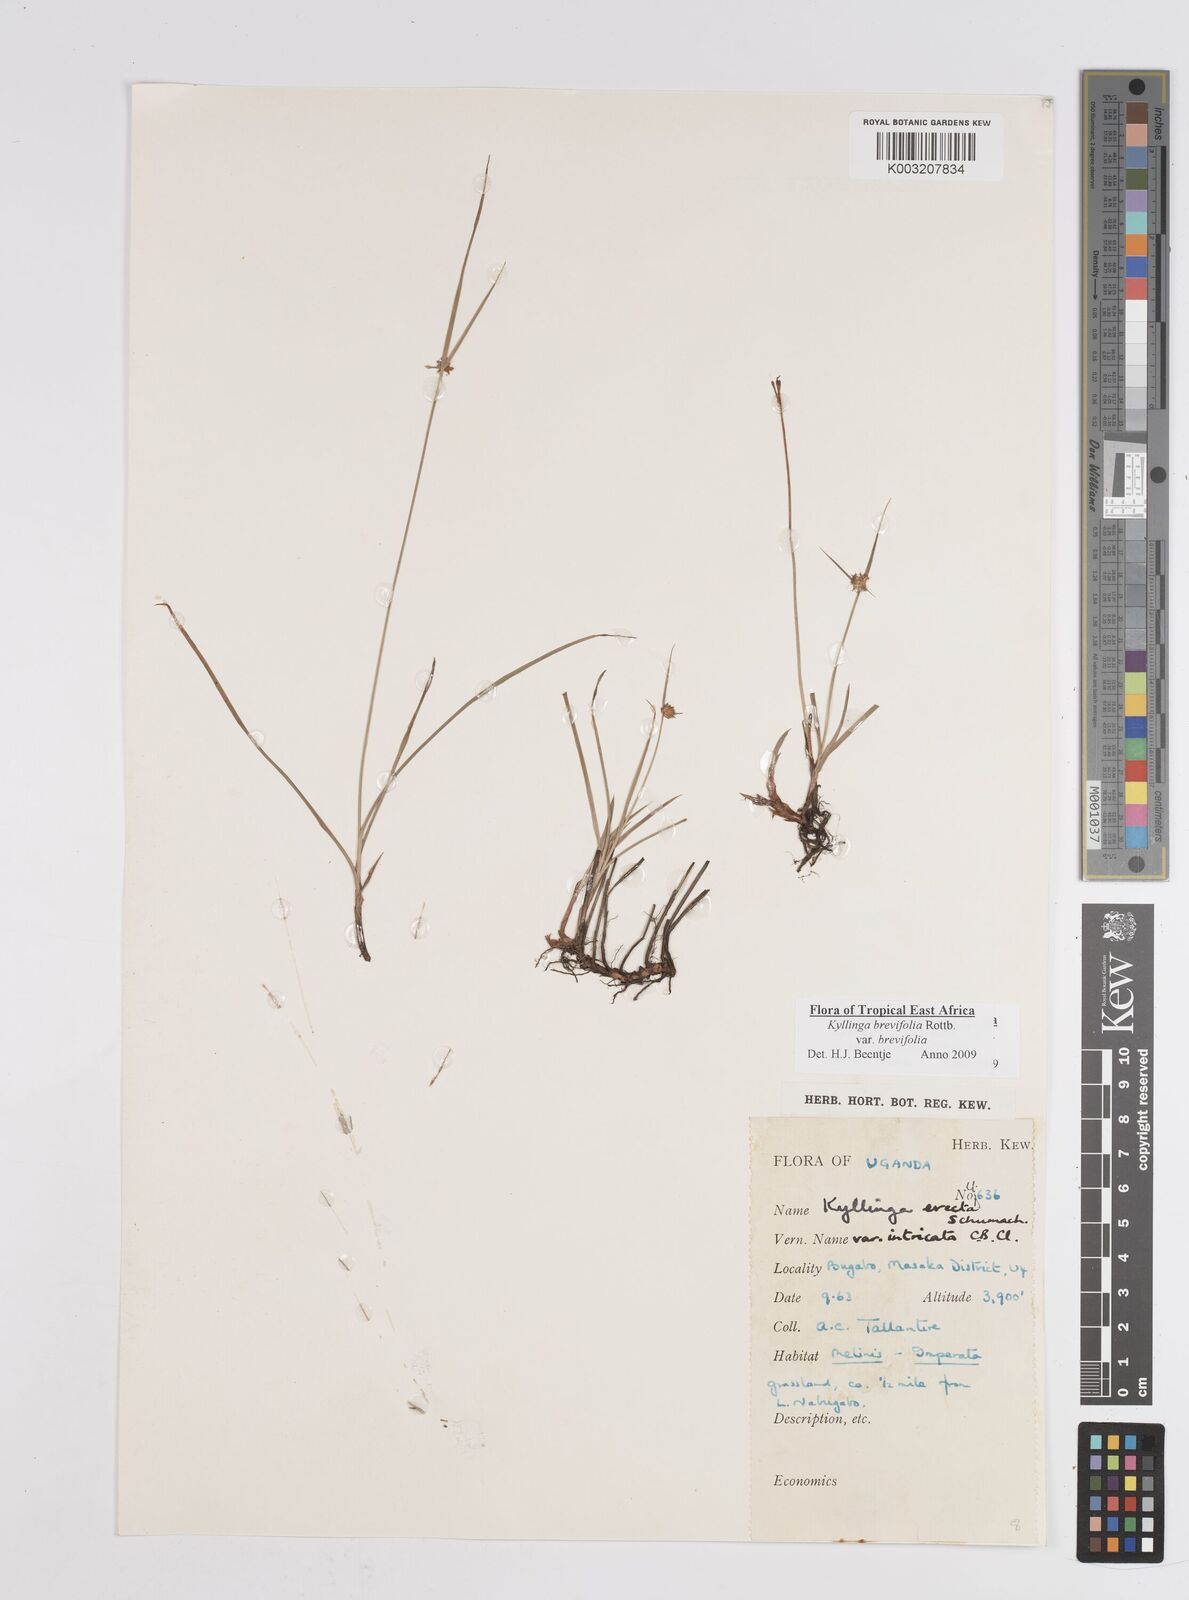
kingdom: Plantae
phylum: Tracheophyta
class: Liliopsida
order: Poales
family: Cyperaceae
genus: Cyperus
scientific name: Cyperus erectus
